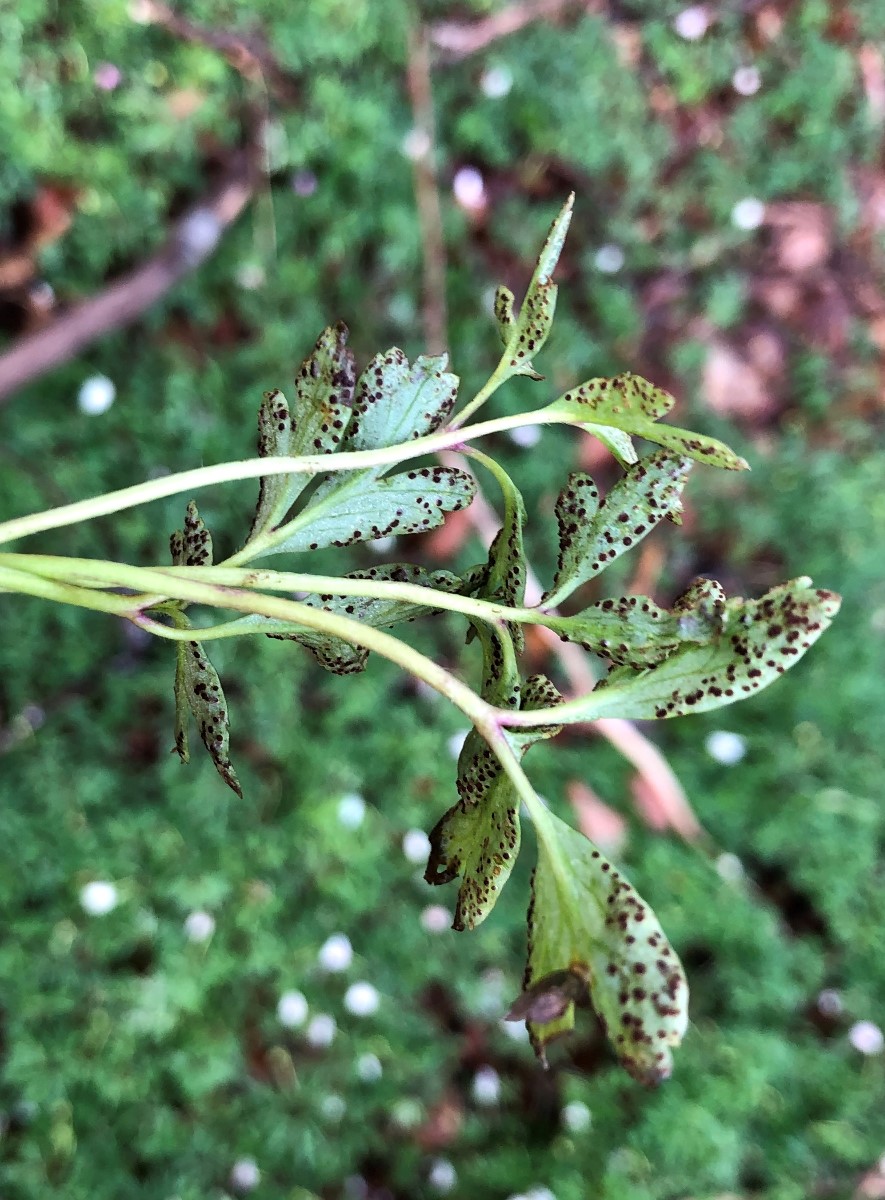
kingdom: Fungi
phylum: Basidiomycota
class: Pucciniomycetes
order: Pucciniales
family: Tranzscheliaceae
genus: Tranzschelia
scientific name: Tranzschelia anemones
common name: anemone-knæksporerust
